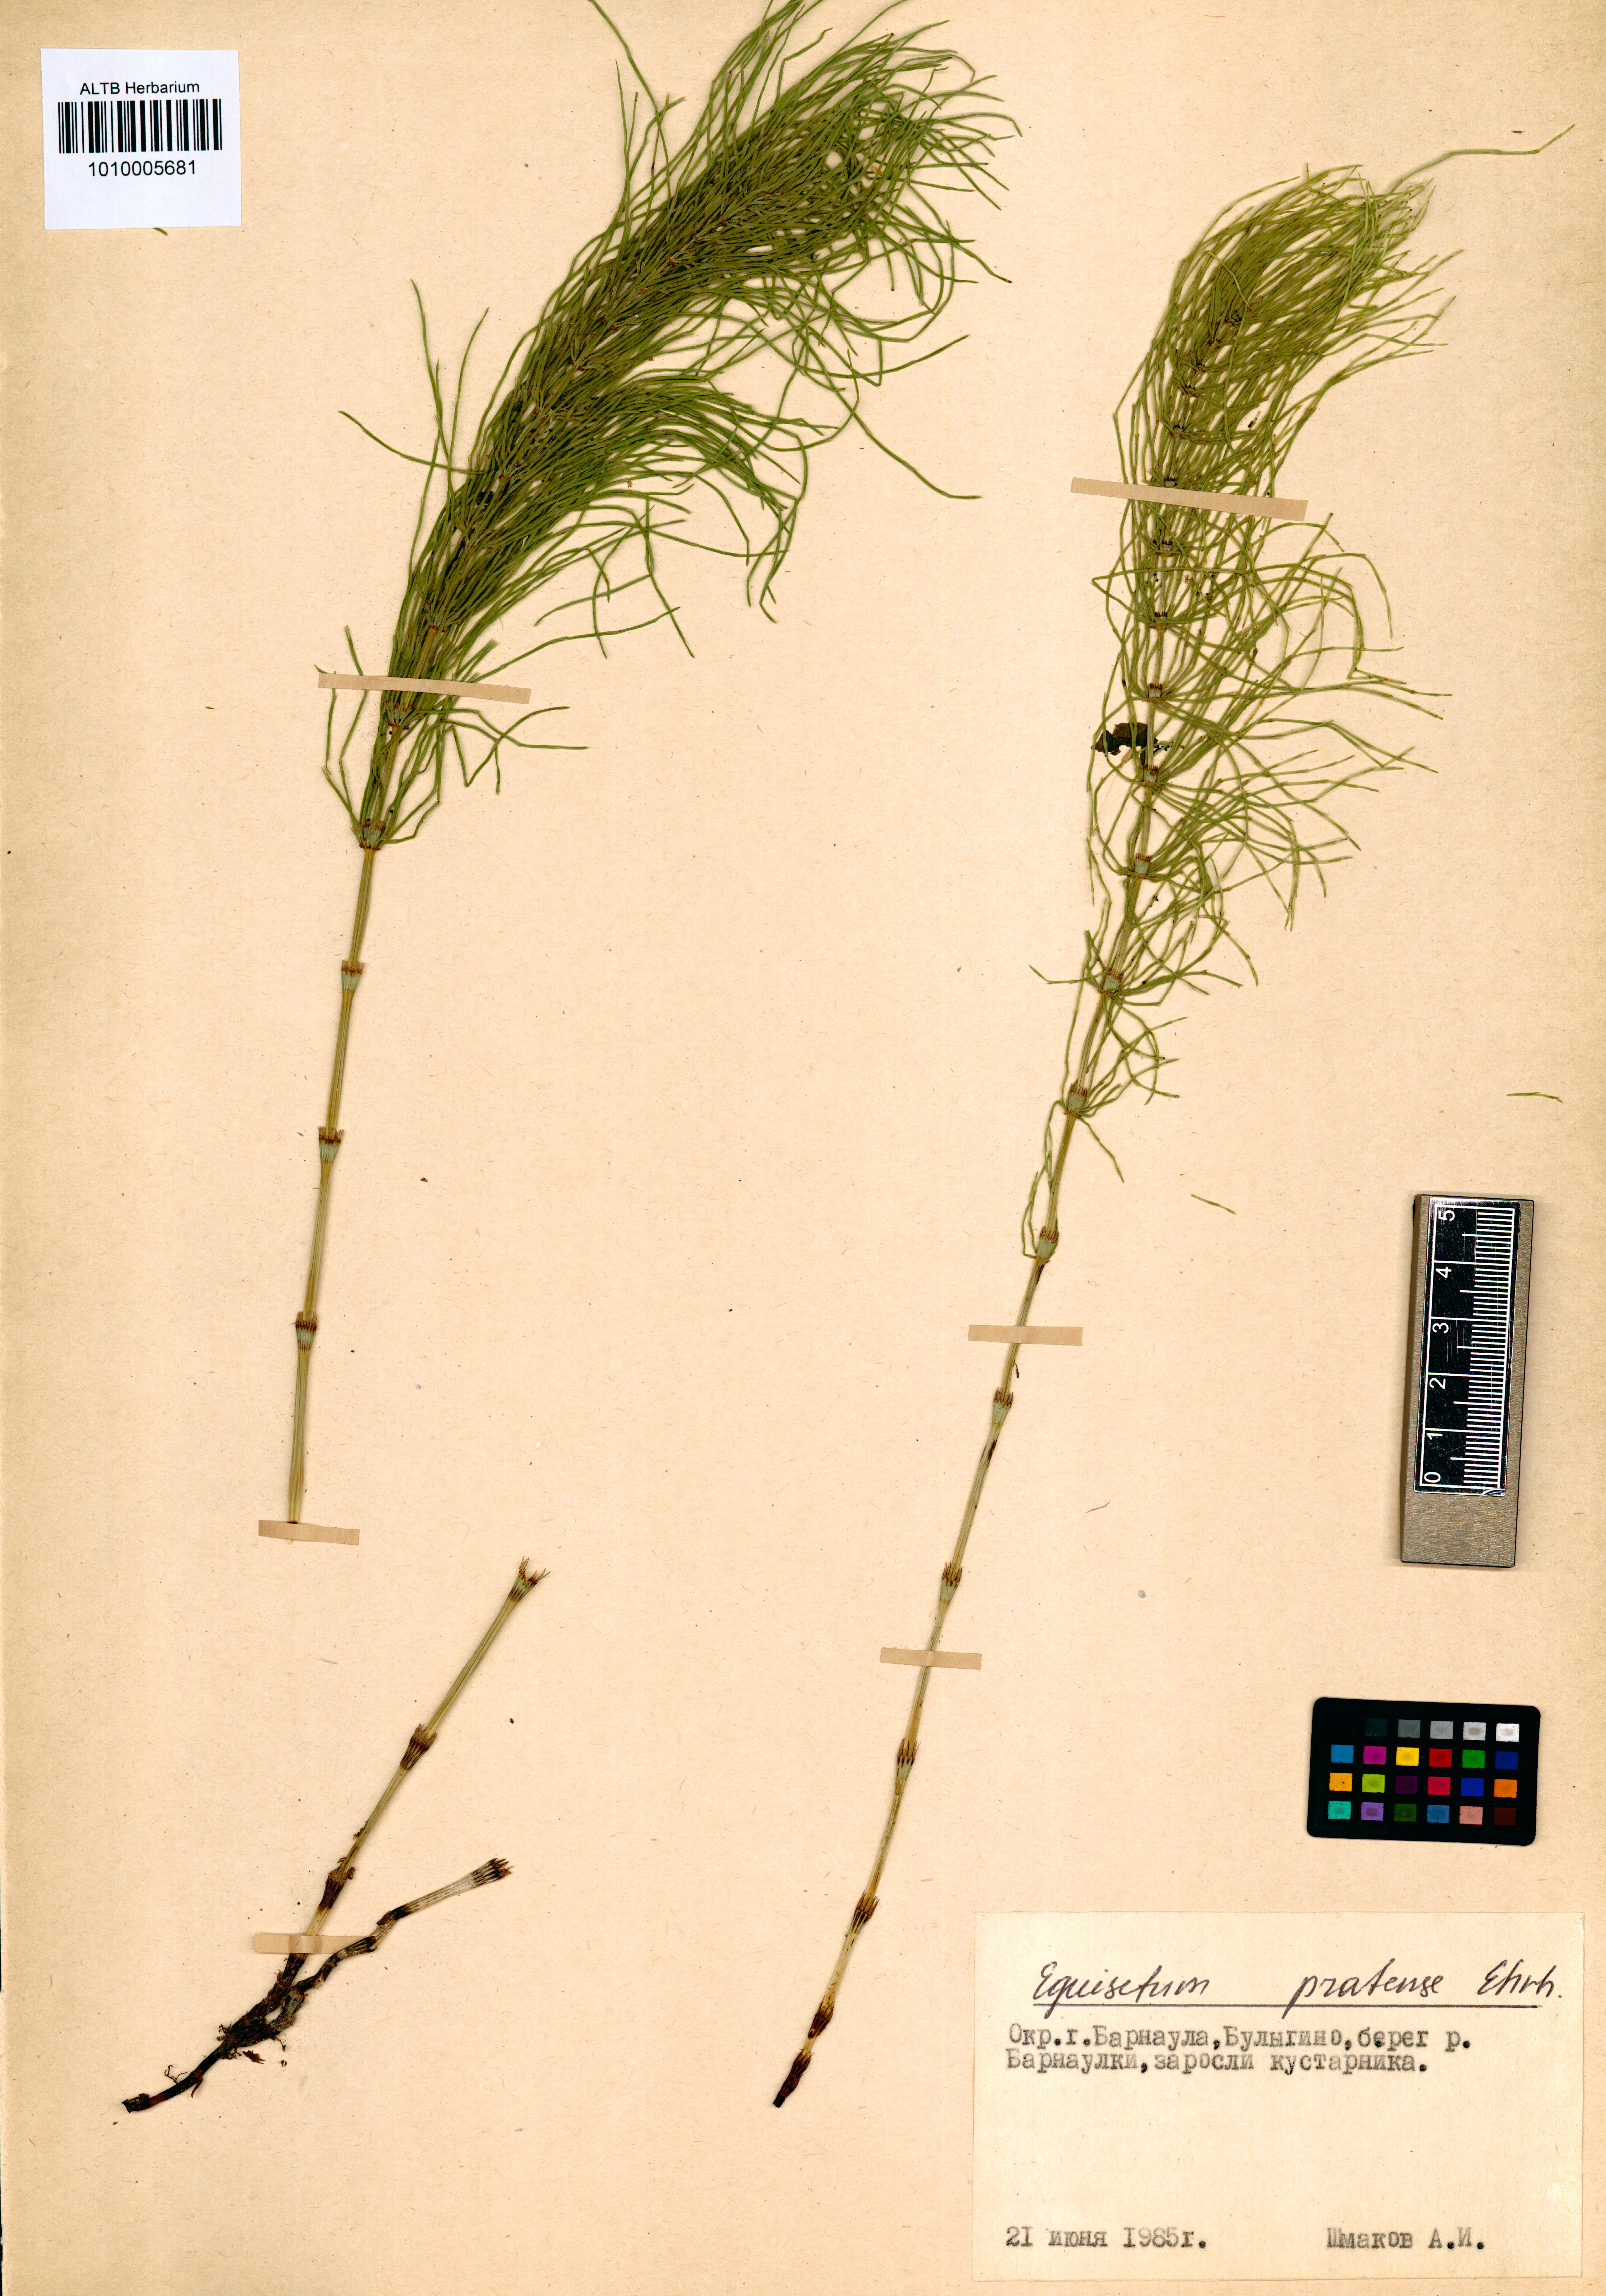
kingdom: Plantae
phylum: Tracheophyta
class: Polypodiopsida
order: Equisetales
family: Equisetaceae
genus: Equisetum
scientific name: Equisetum pratense
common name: Meadow horsetail
